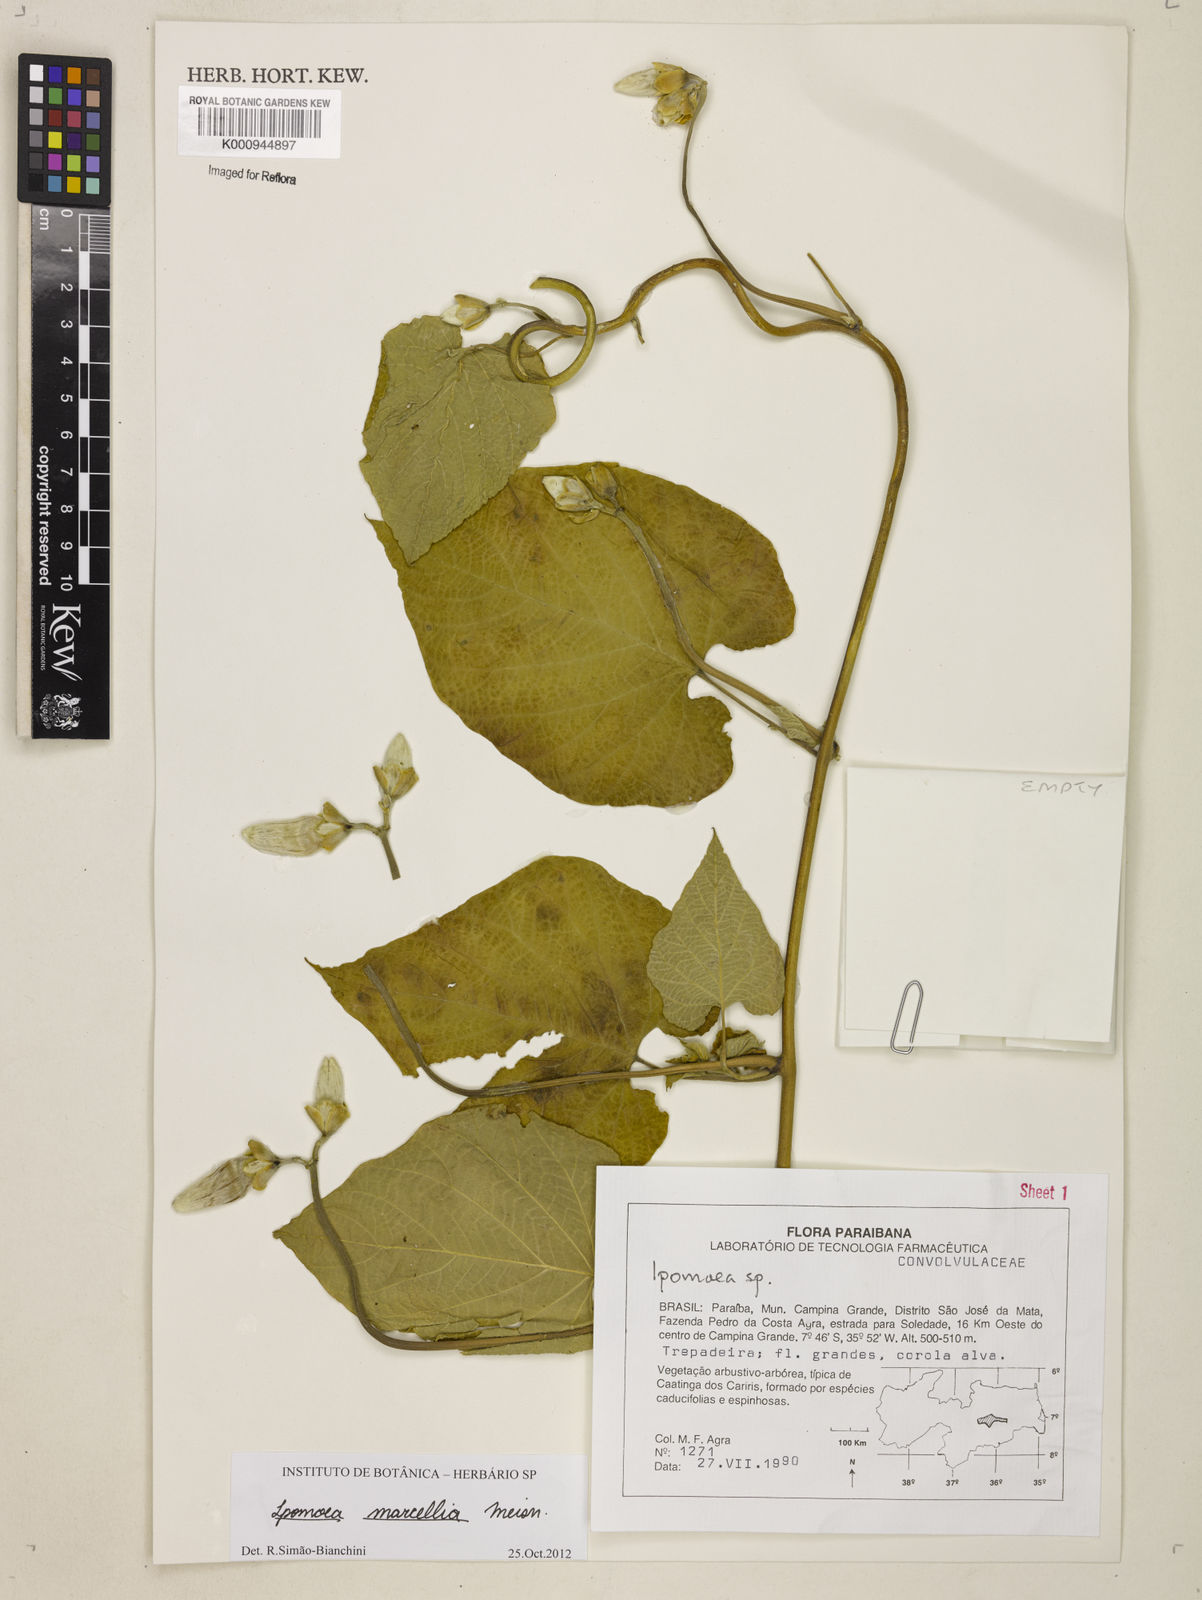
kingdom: Plantae
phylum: Tracheophyta
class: Magnoliopsida
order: Solanales
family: Convolvulaceae
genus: Ipomoea
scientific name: Ipomoea marcellia
